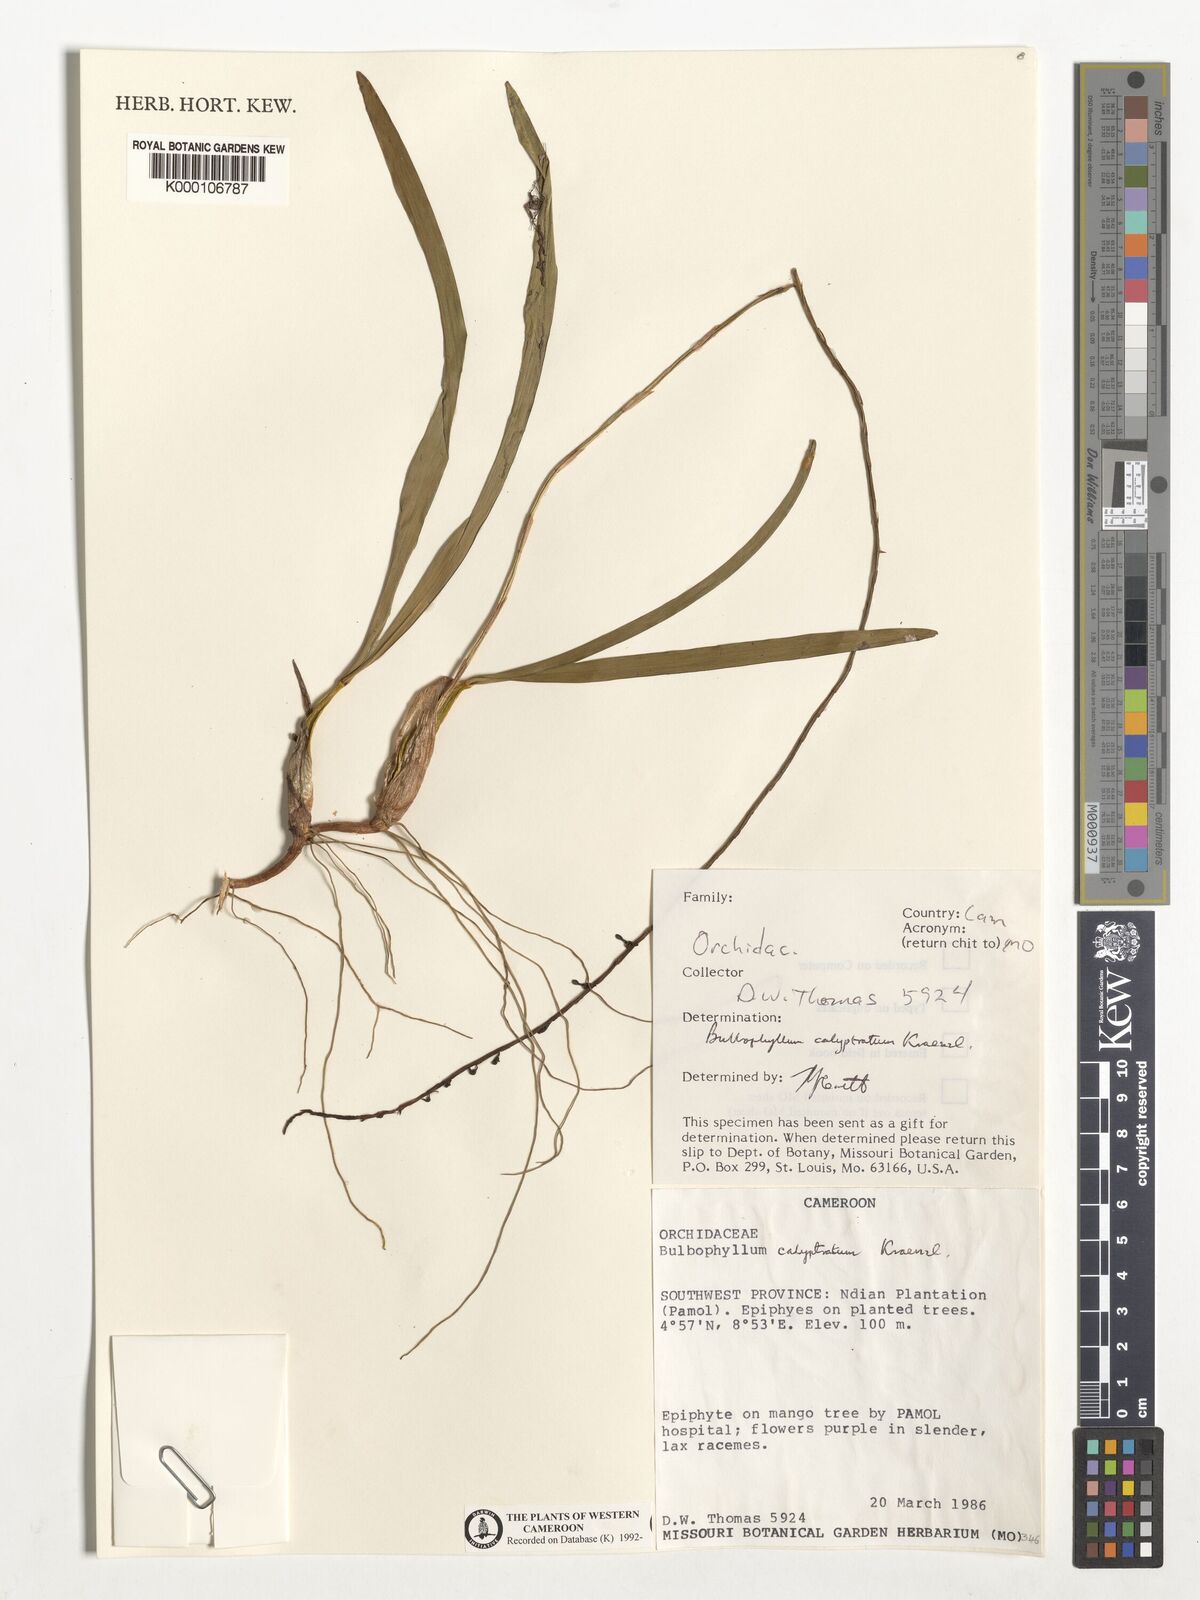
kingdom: Plantae
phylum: Tracheophyta
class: Liliopsida
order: Asparagales
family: Orchidaceae
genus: Bulbophyllum
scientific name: Bulbophyllum calyptratum
